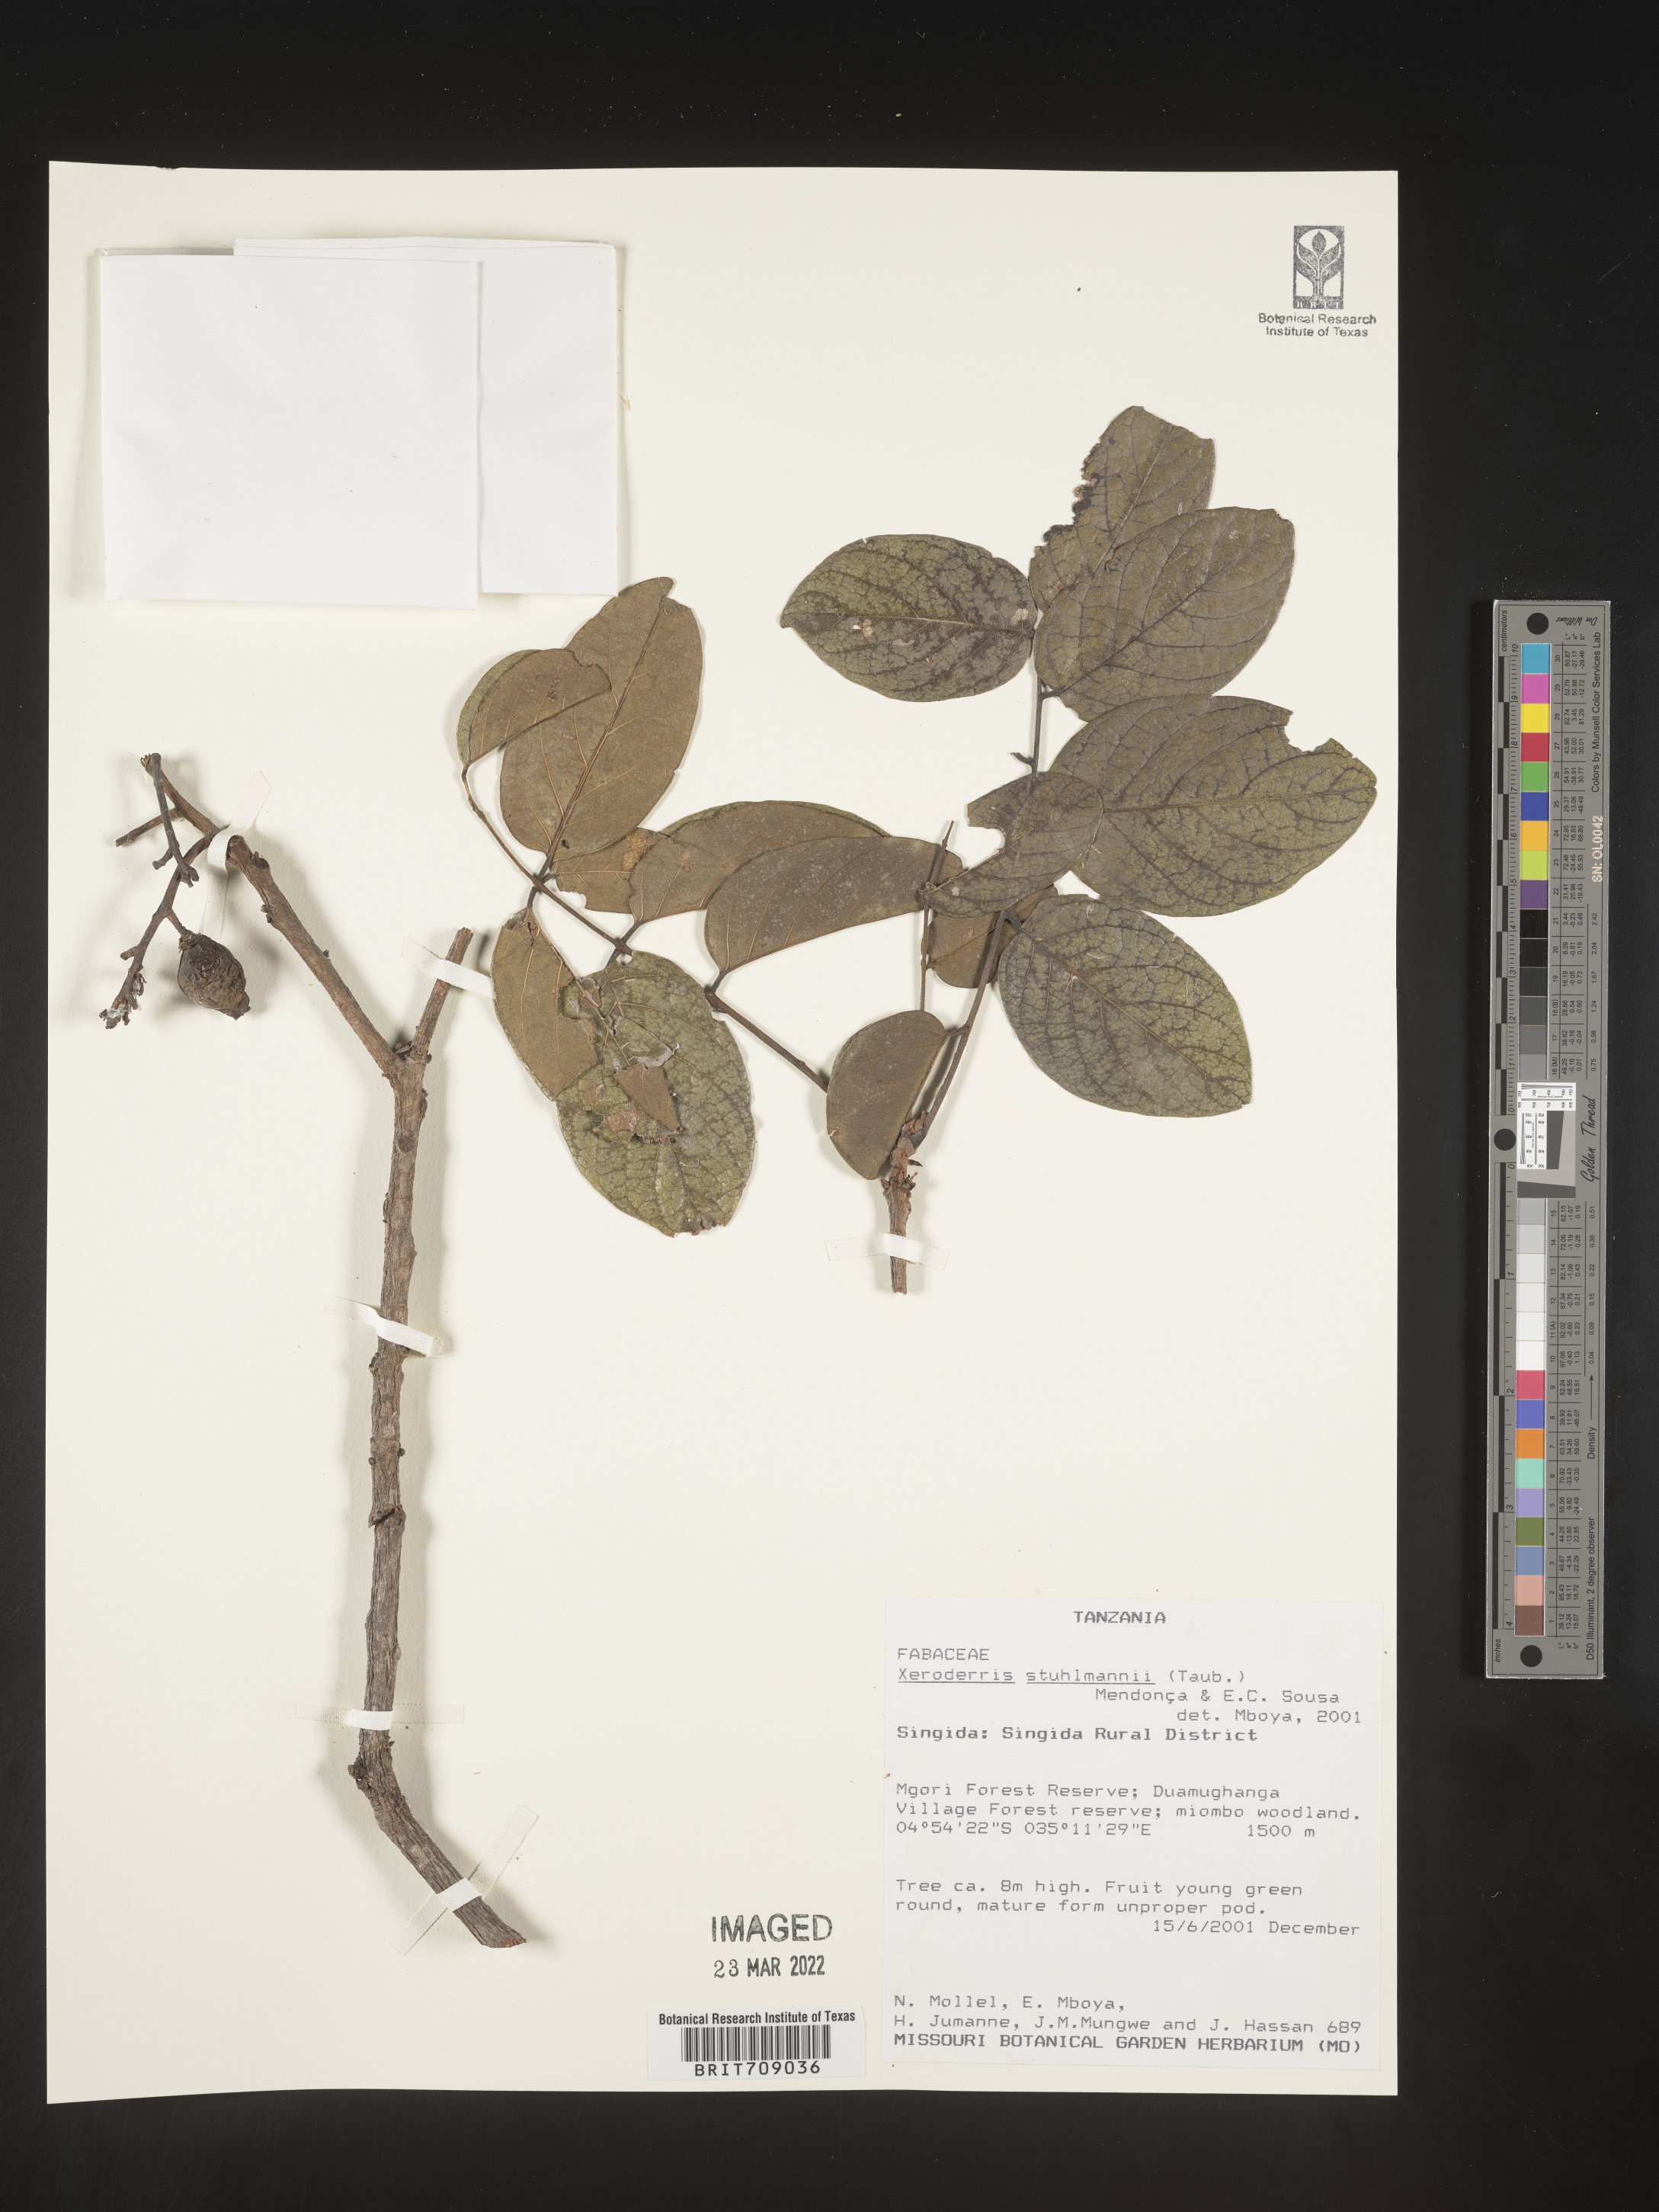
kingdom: Plantae
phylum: Tracheophyta
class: Magnoliopsida
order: Fabales
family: Fabaceae
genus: Aganope
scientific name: Aganope
